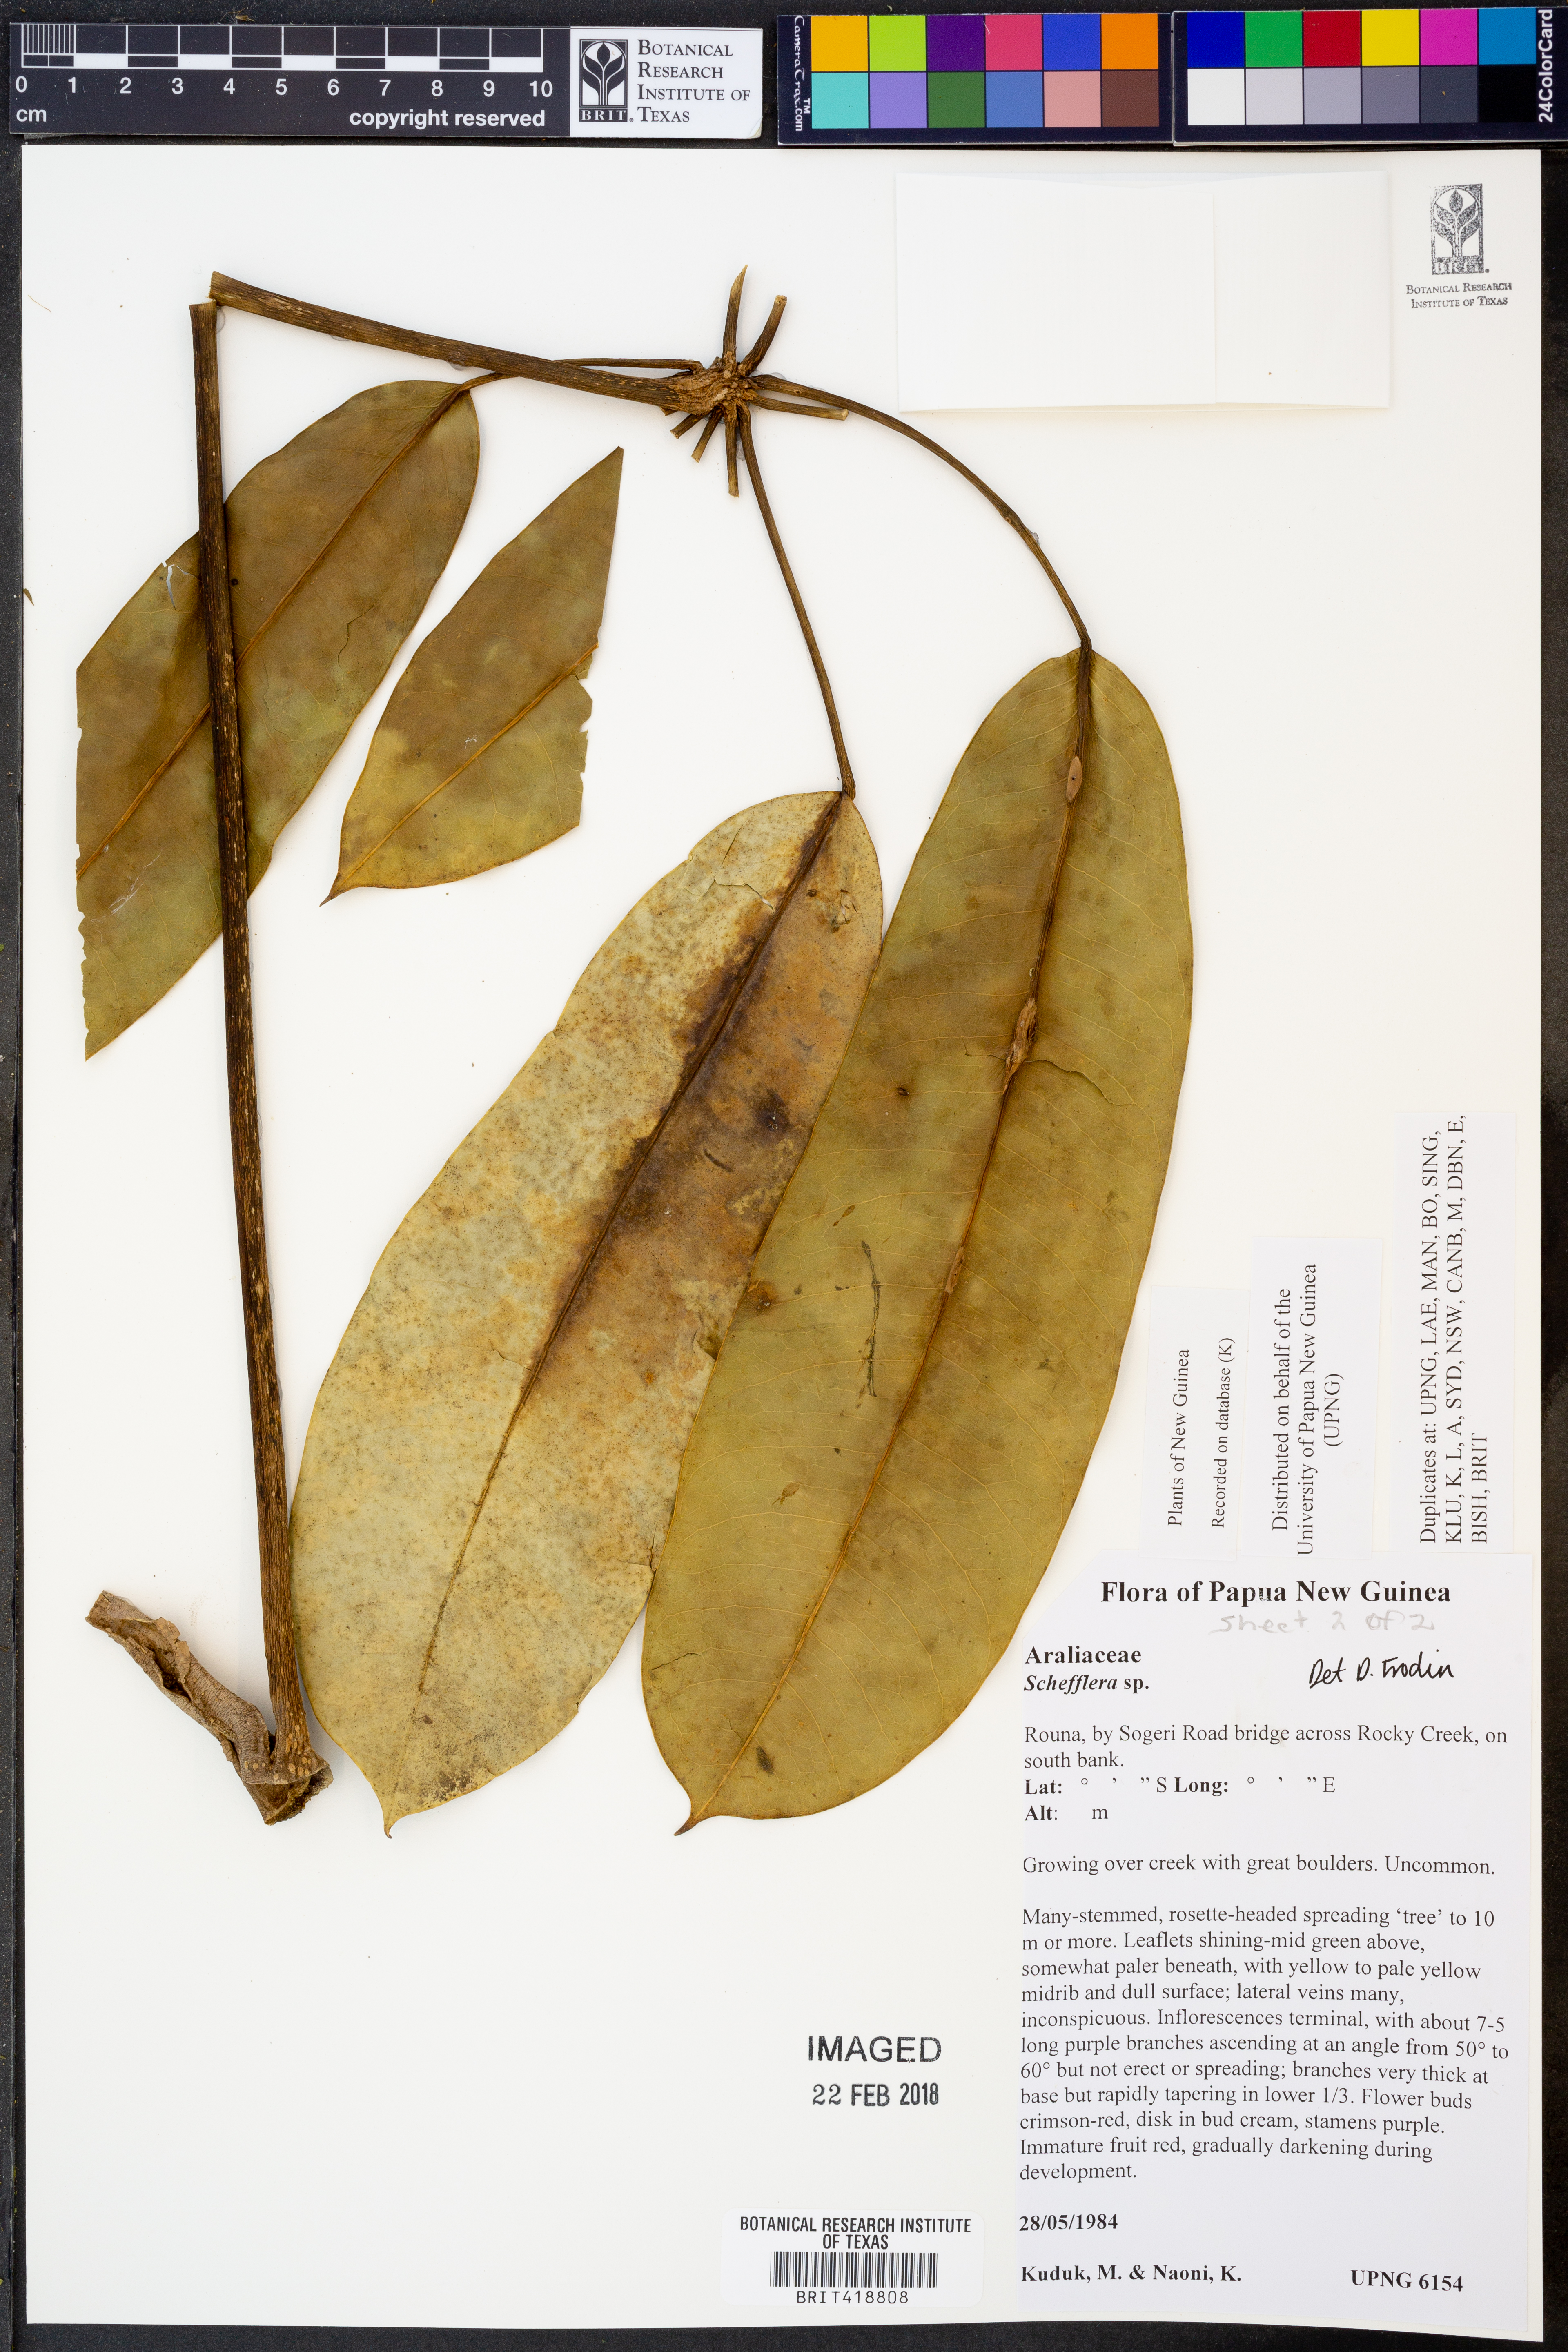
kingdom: Plantae
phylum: Tracheophyta
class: Magnoliopsida
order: Apiales
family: Araliaceae
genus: Schefflera
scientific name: Schefflera
